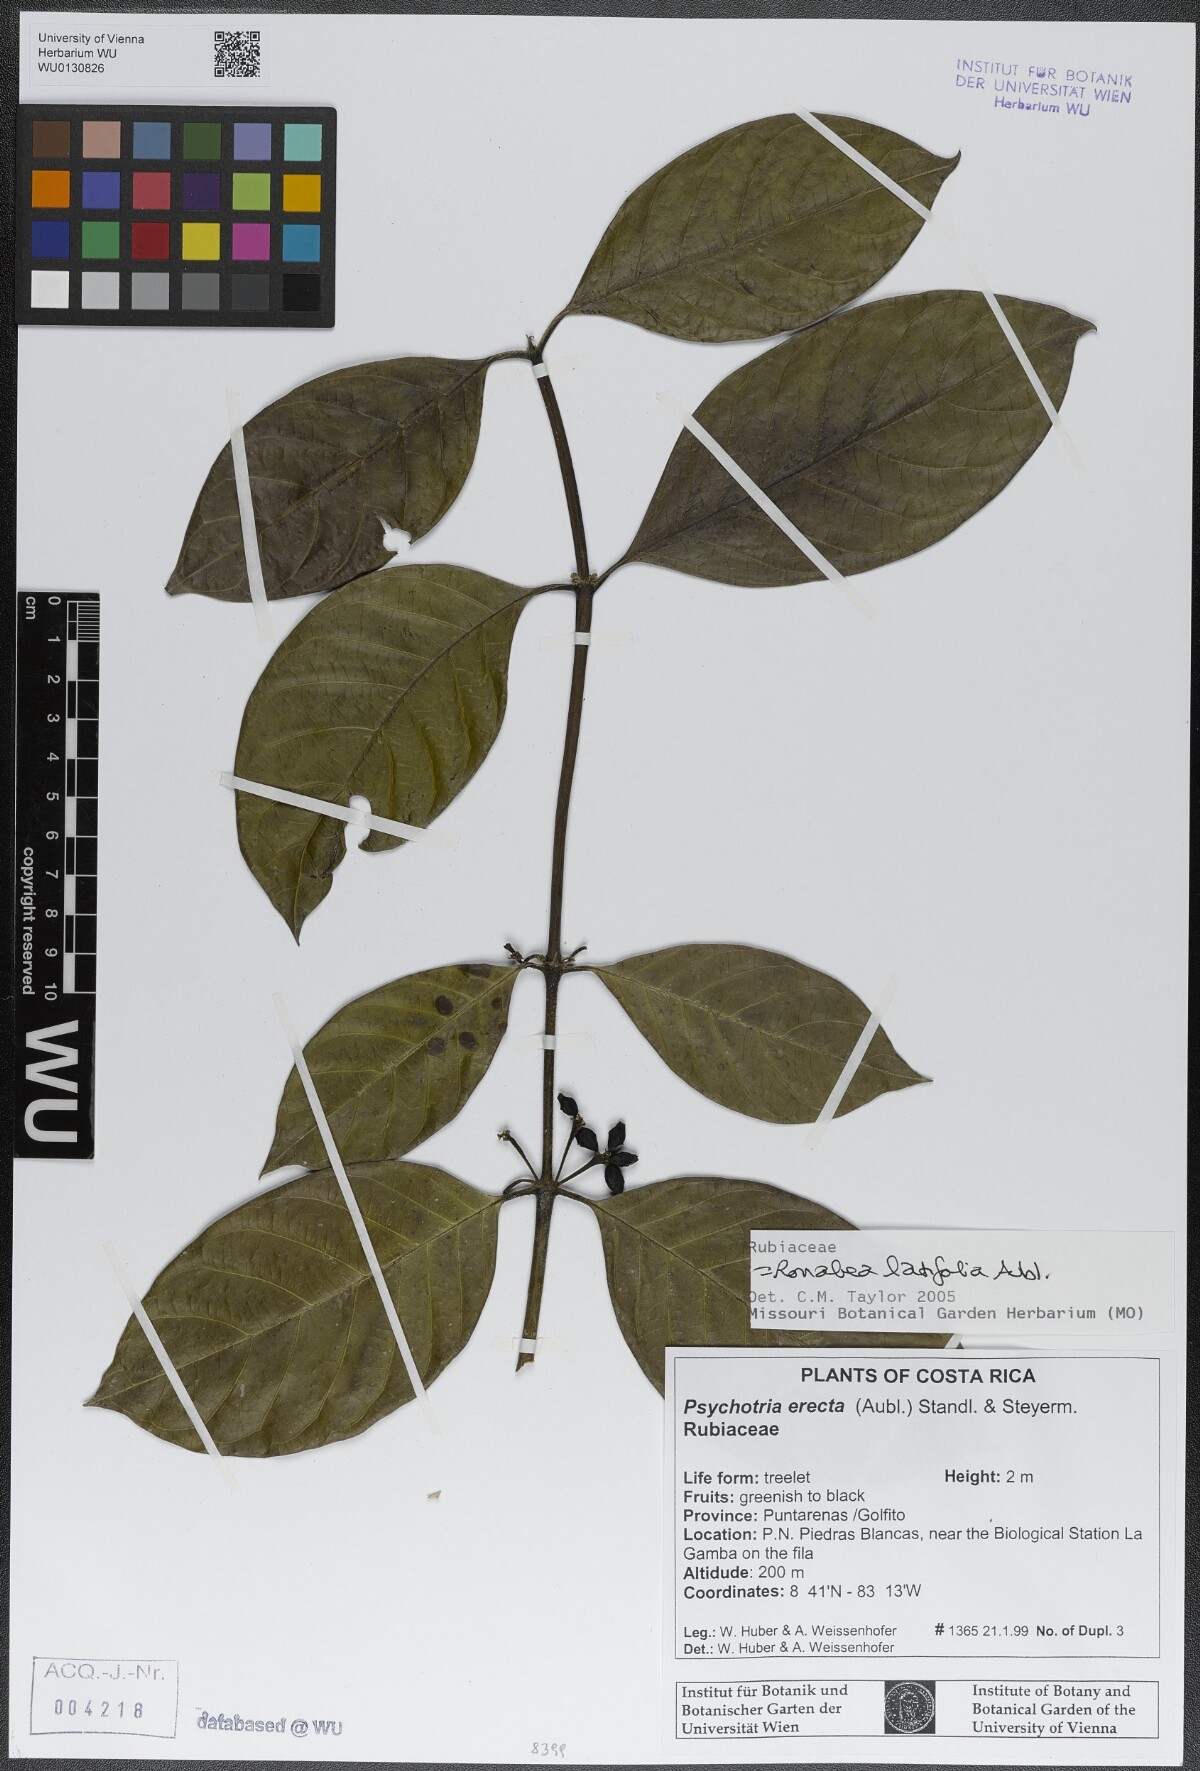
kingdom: Plantae
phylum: Tracheophyta
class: Magnoliopsida
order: Gentianales
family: Rubiaceae
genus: Ronabea
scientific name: Ronabea latifolia
